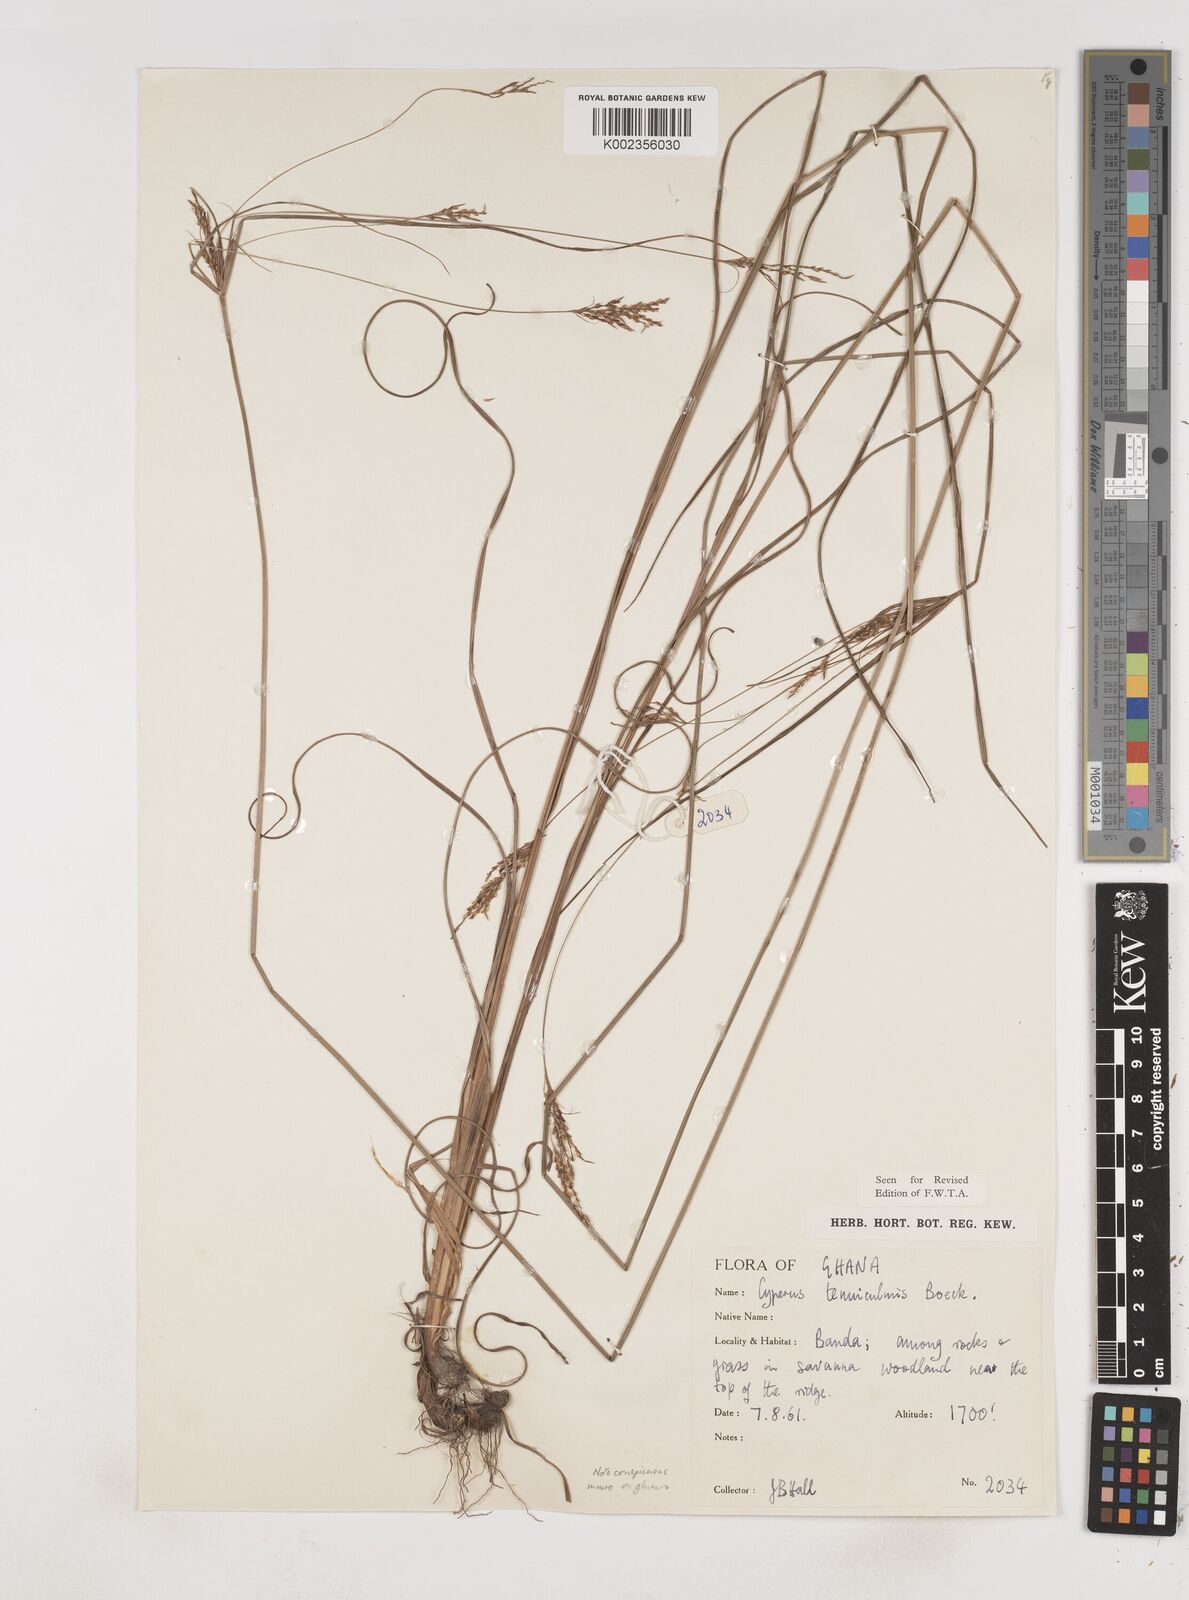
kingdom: Plantae
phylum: Tracheophyta
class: Liliopsida
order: Poales
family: Cyperaceae
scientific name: Cyperaceae
